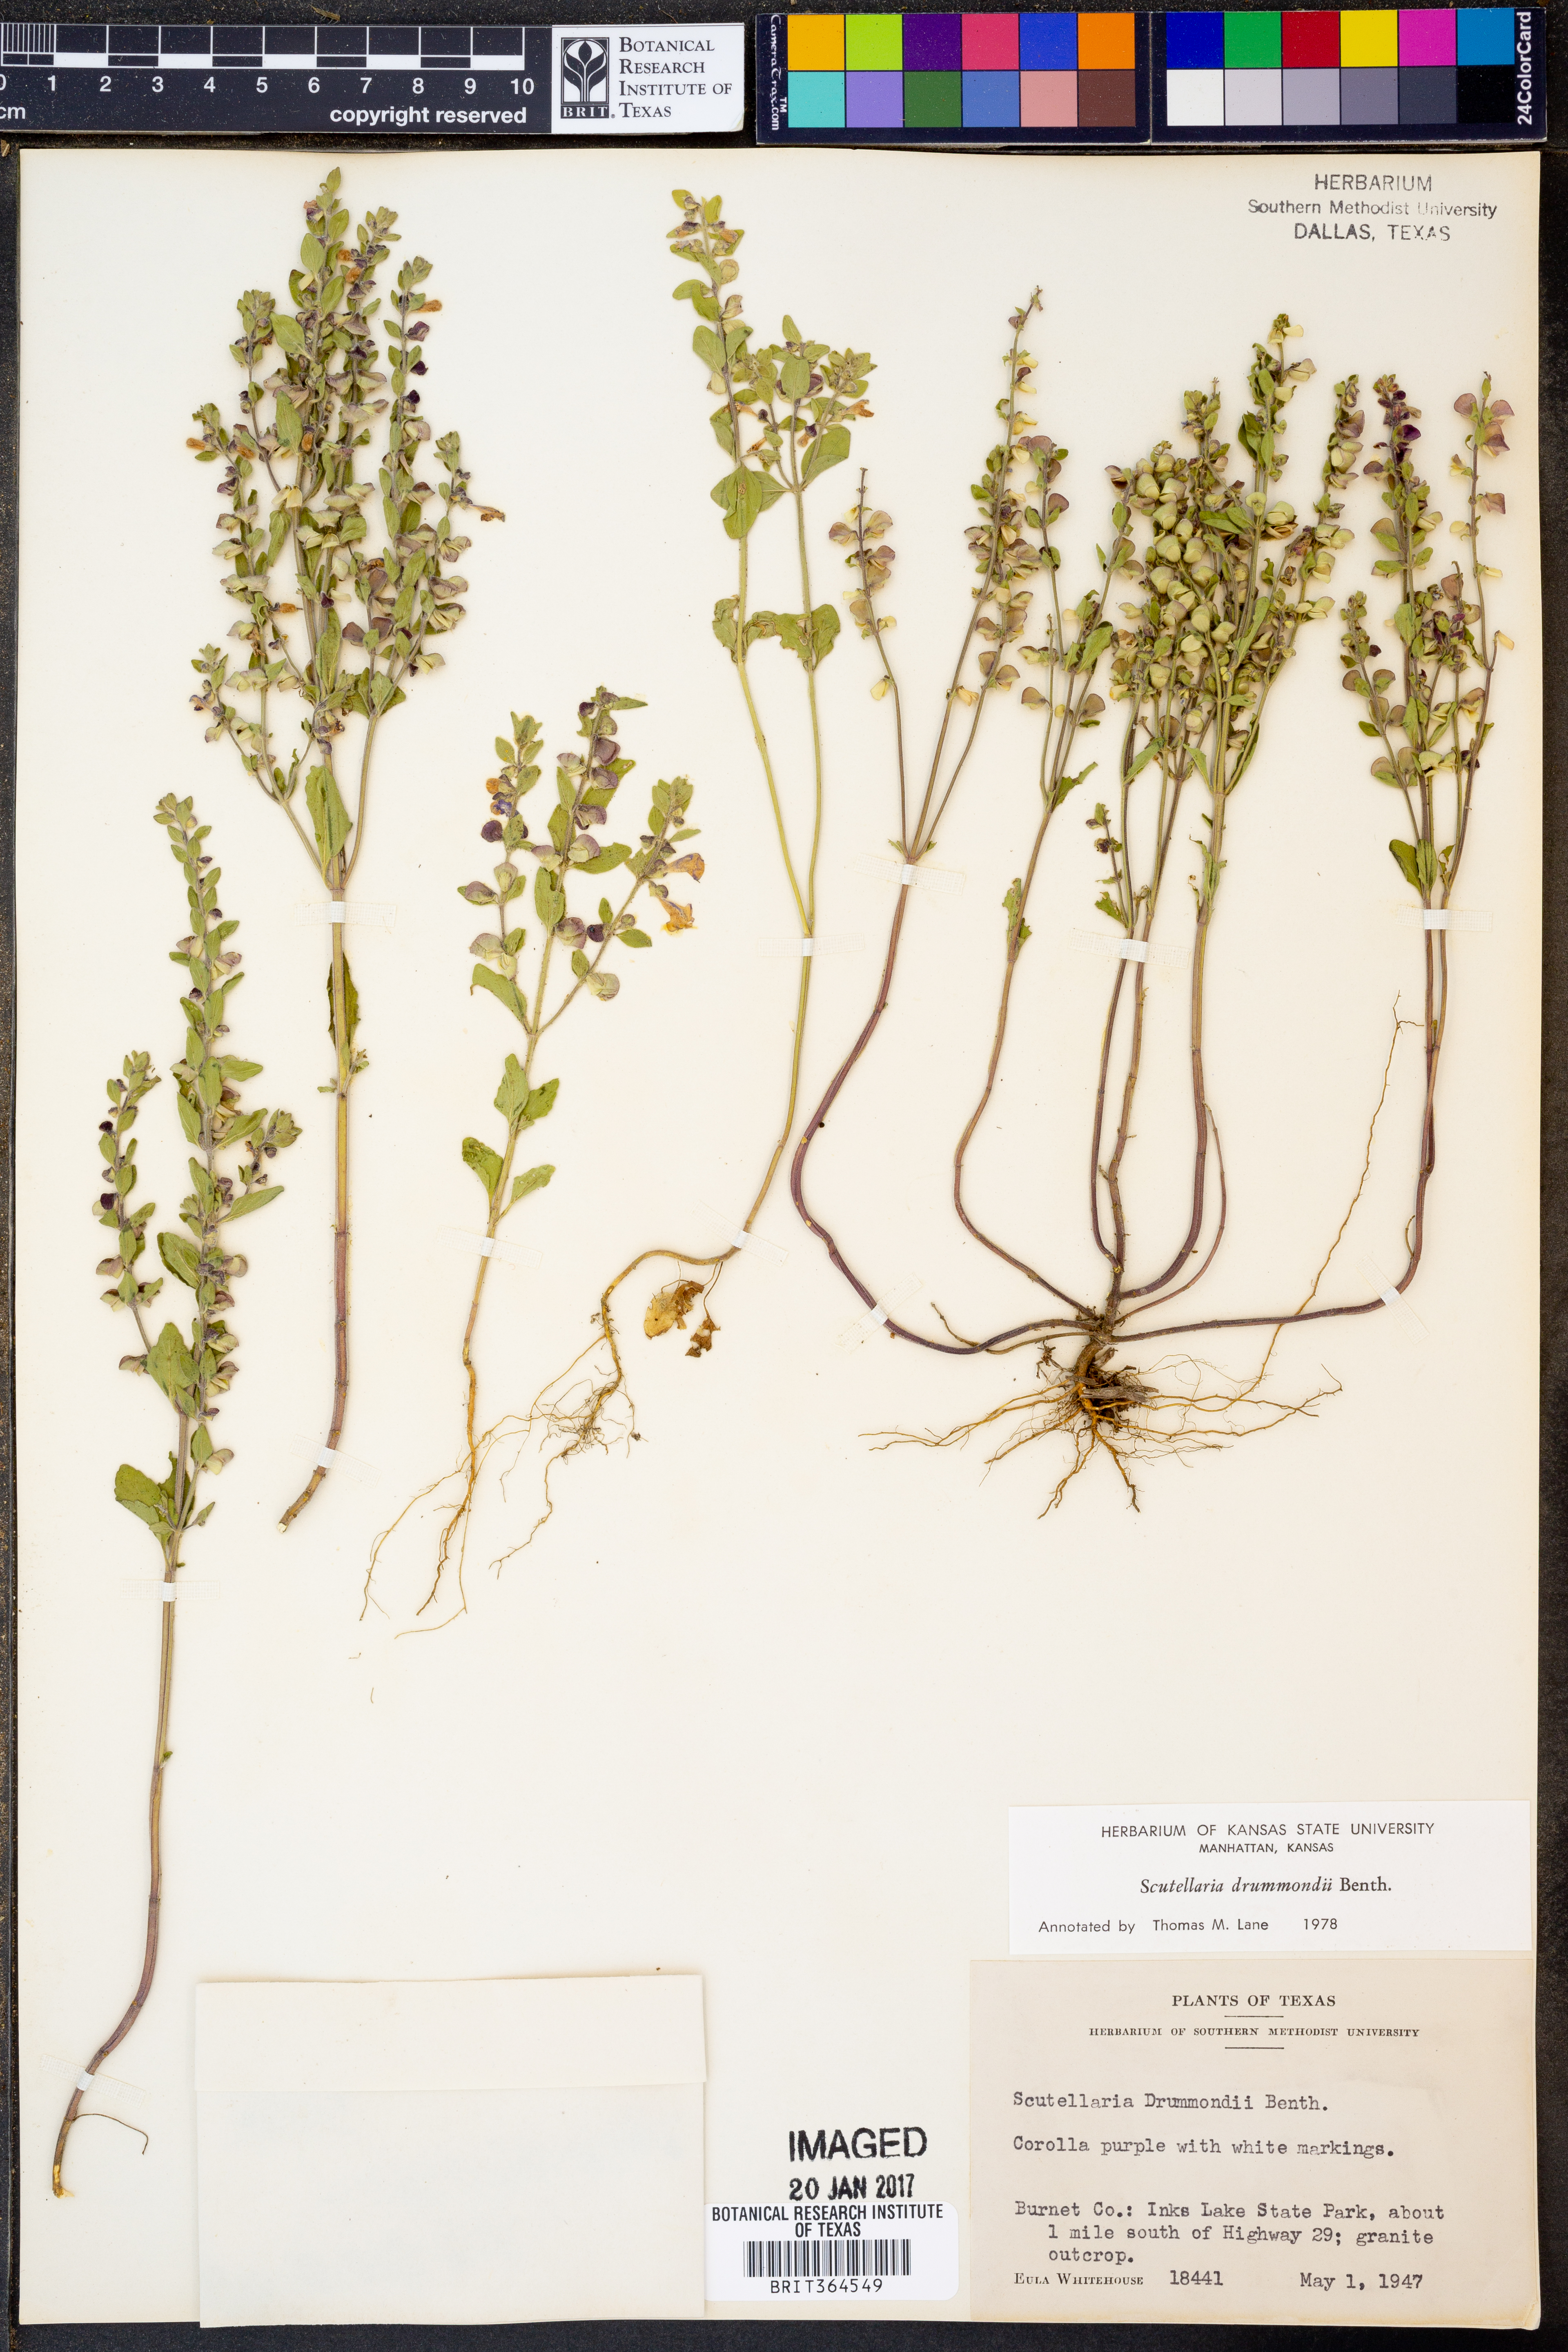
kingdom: Plantae
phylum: Tracheophyta
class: Magnoliopsida
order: Lamiales
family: Lamiaceae
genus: Scutellaria
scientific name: Scutellaria drummondii
